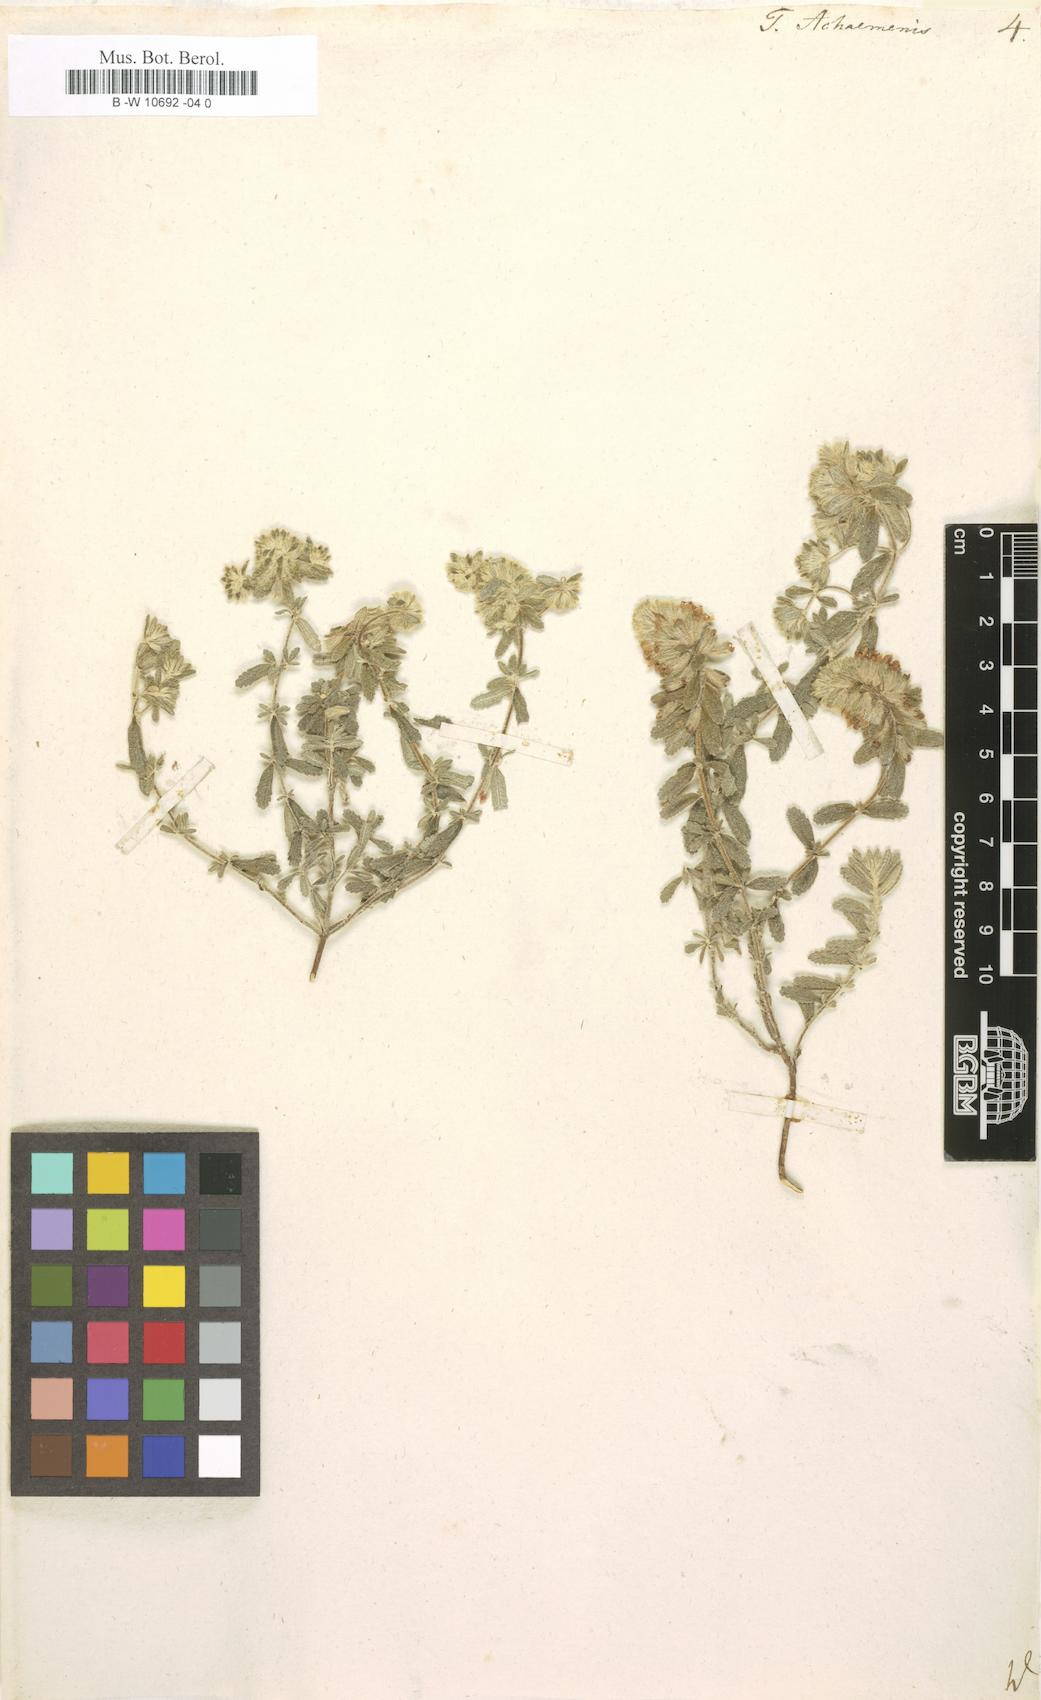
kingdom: Plantae
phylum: Tracheophyta
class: Magnoliopsida
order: Lamiales
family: Lamiaceae
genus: Teucrium
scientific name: Teucrium capitatum
